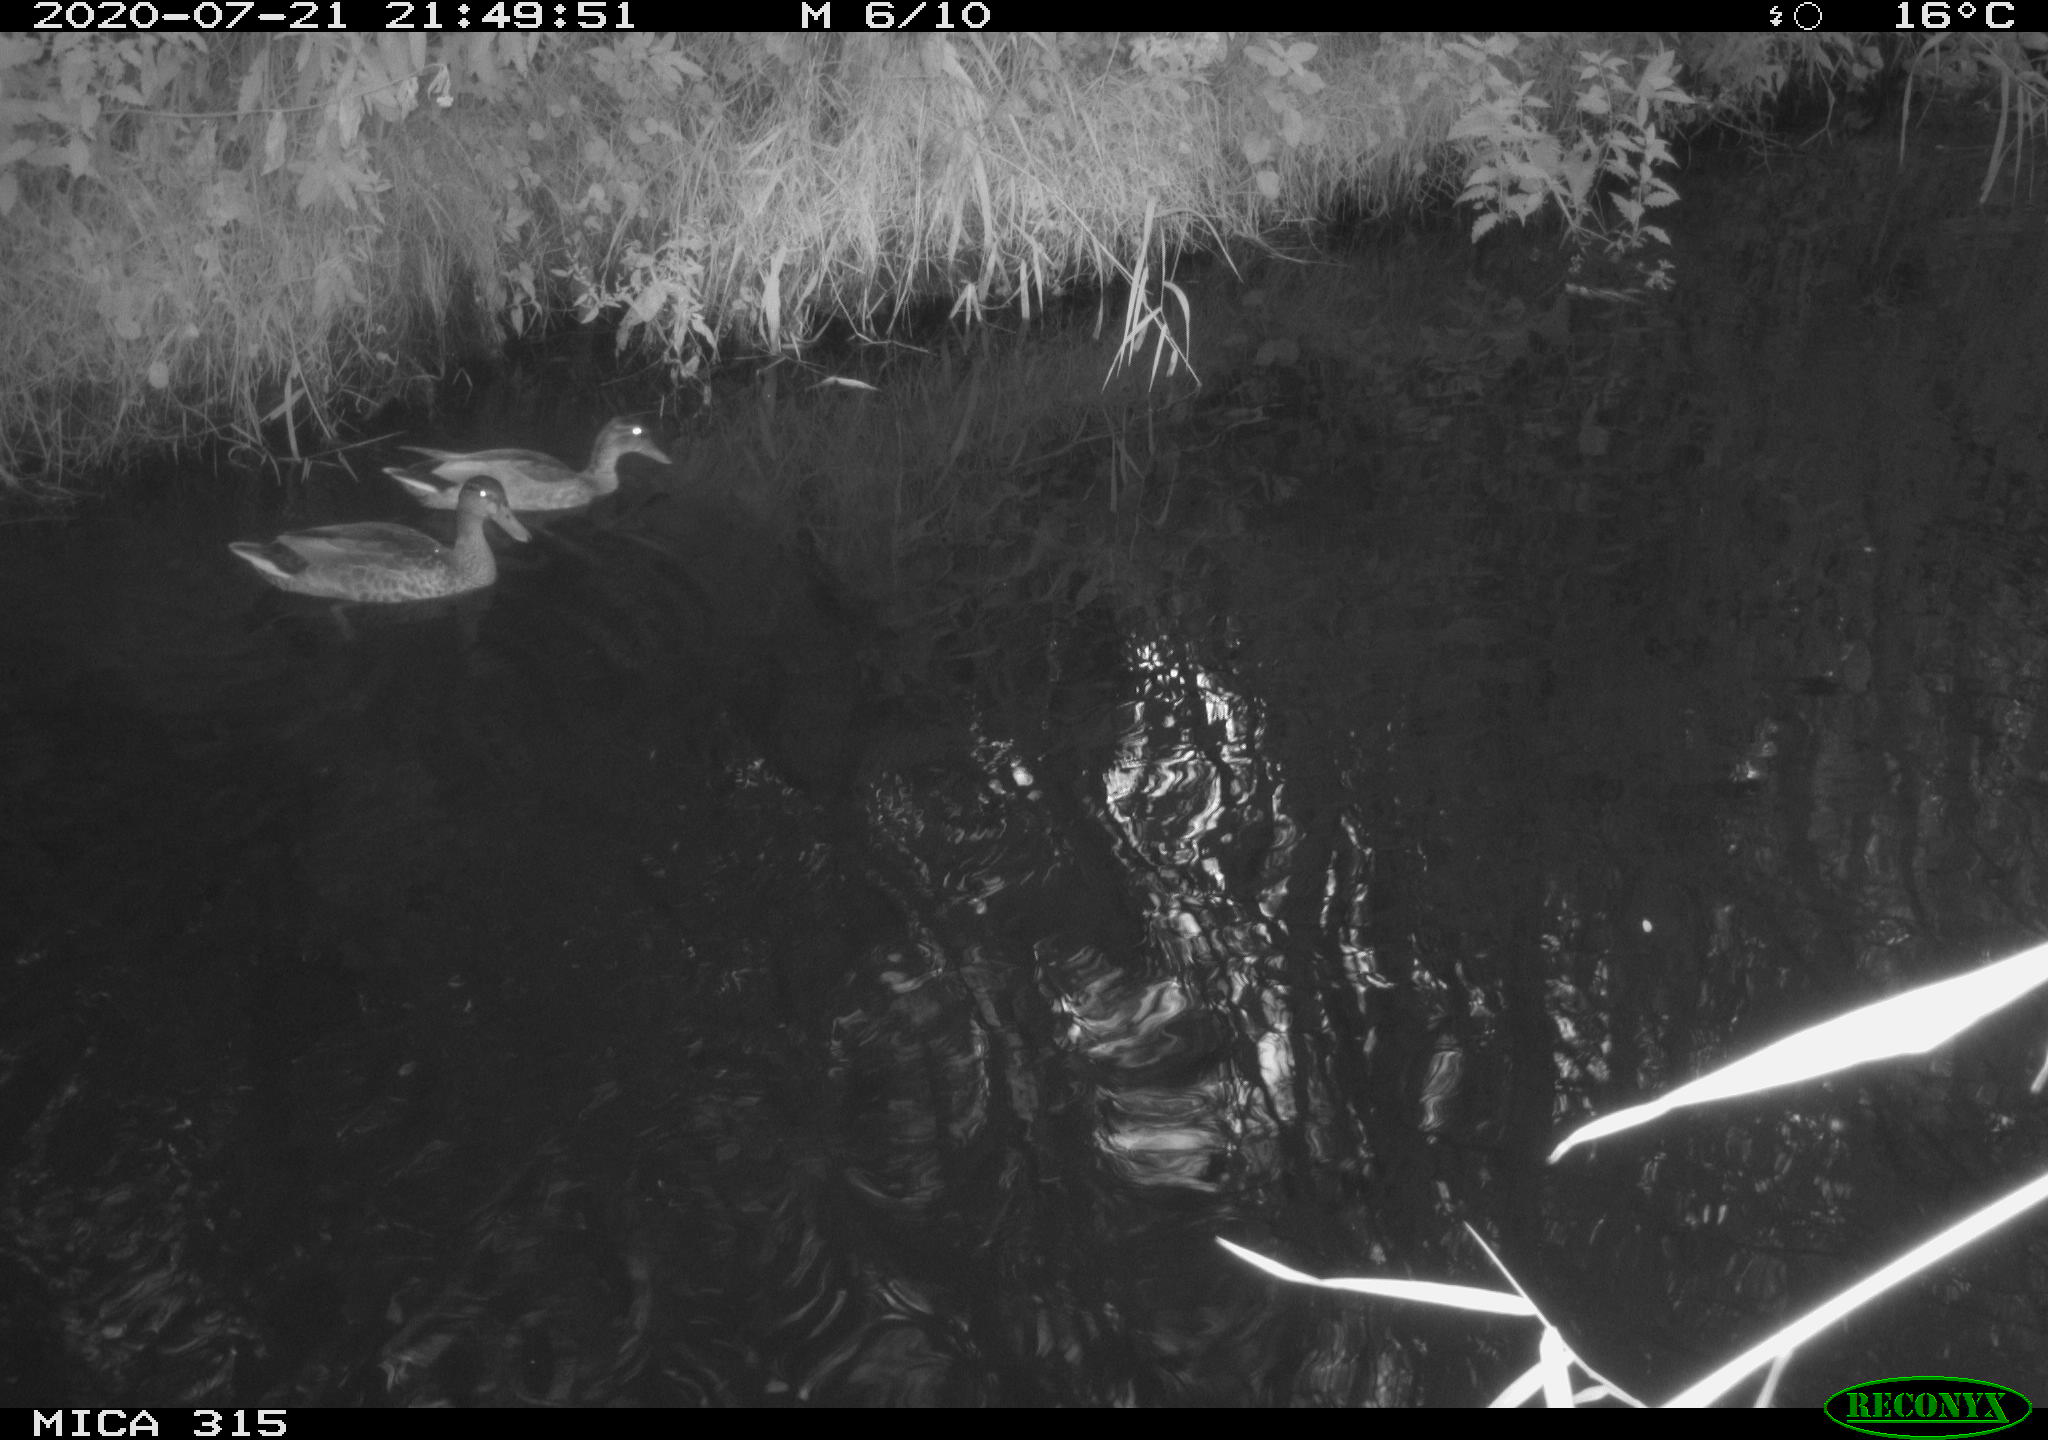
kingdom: Animalia
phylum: Chordata
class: Aves
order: Anseriformes
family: Anatidae
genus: Anas
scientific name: Anas platyrhynchos
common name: Mallard
